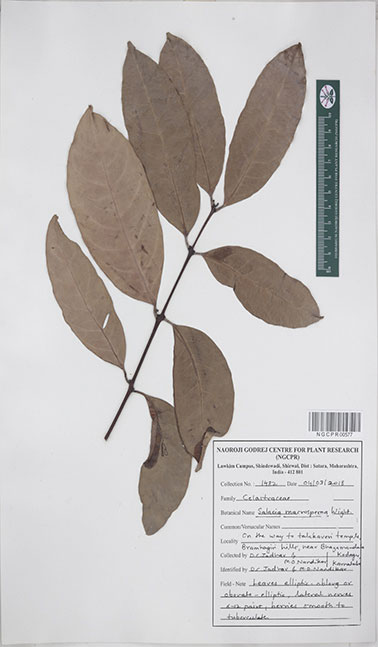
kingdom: Plantae
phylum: Tracheophyta
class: Magnoliopsida
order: Celastrales
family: Celastraceae
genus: Salacia
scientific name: Salacia macrosperma
